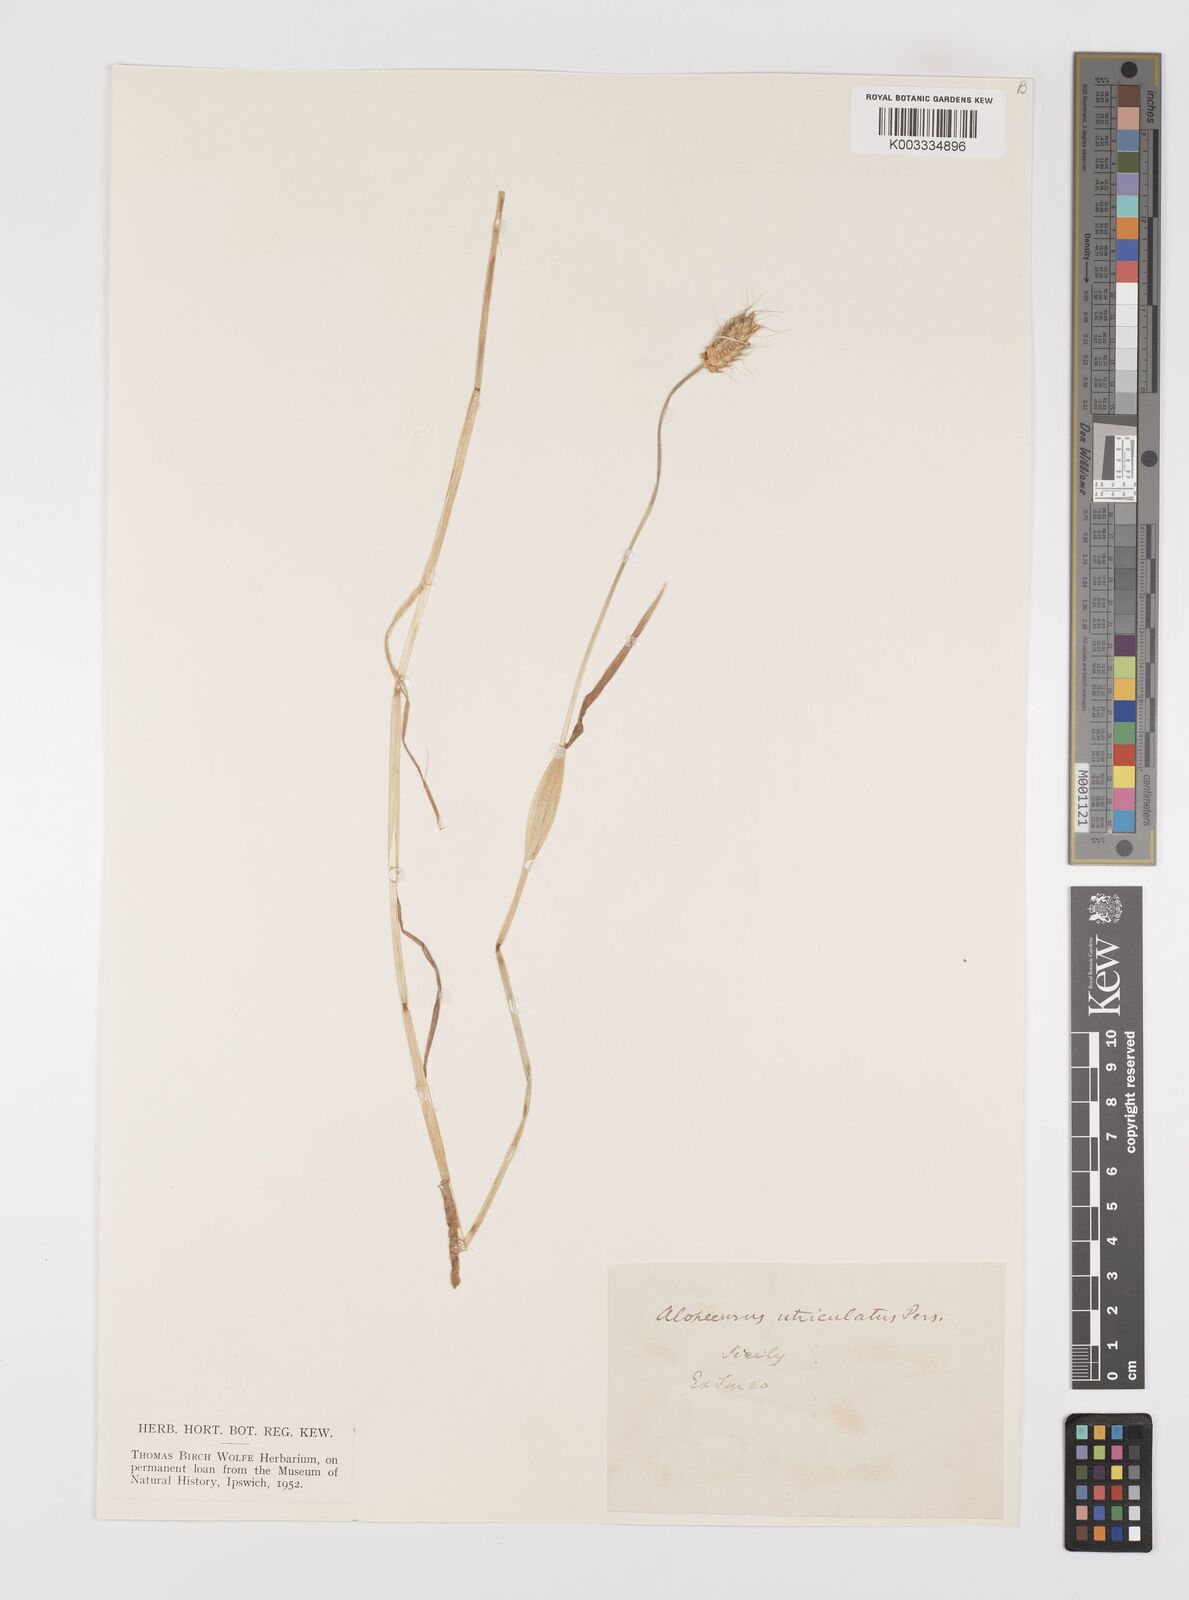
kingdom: Plantae
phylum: Tracheophyta
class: Liliopsida
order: Poales
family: Poaceae
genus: Alopecurus
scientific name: Alopecurus rendlei
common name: Rendle's meadow foxtail
